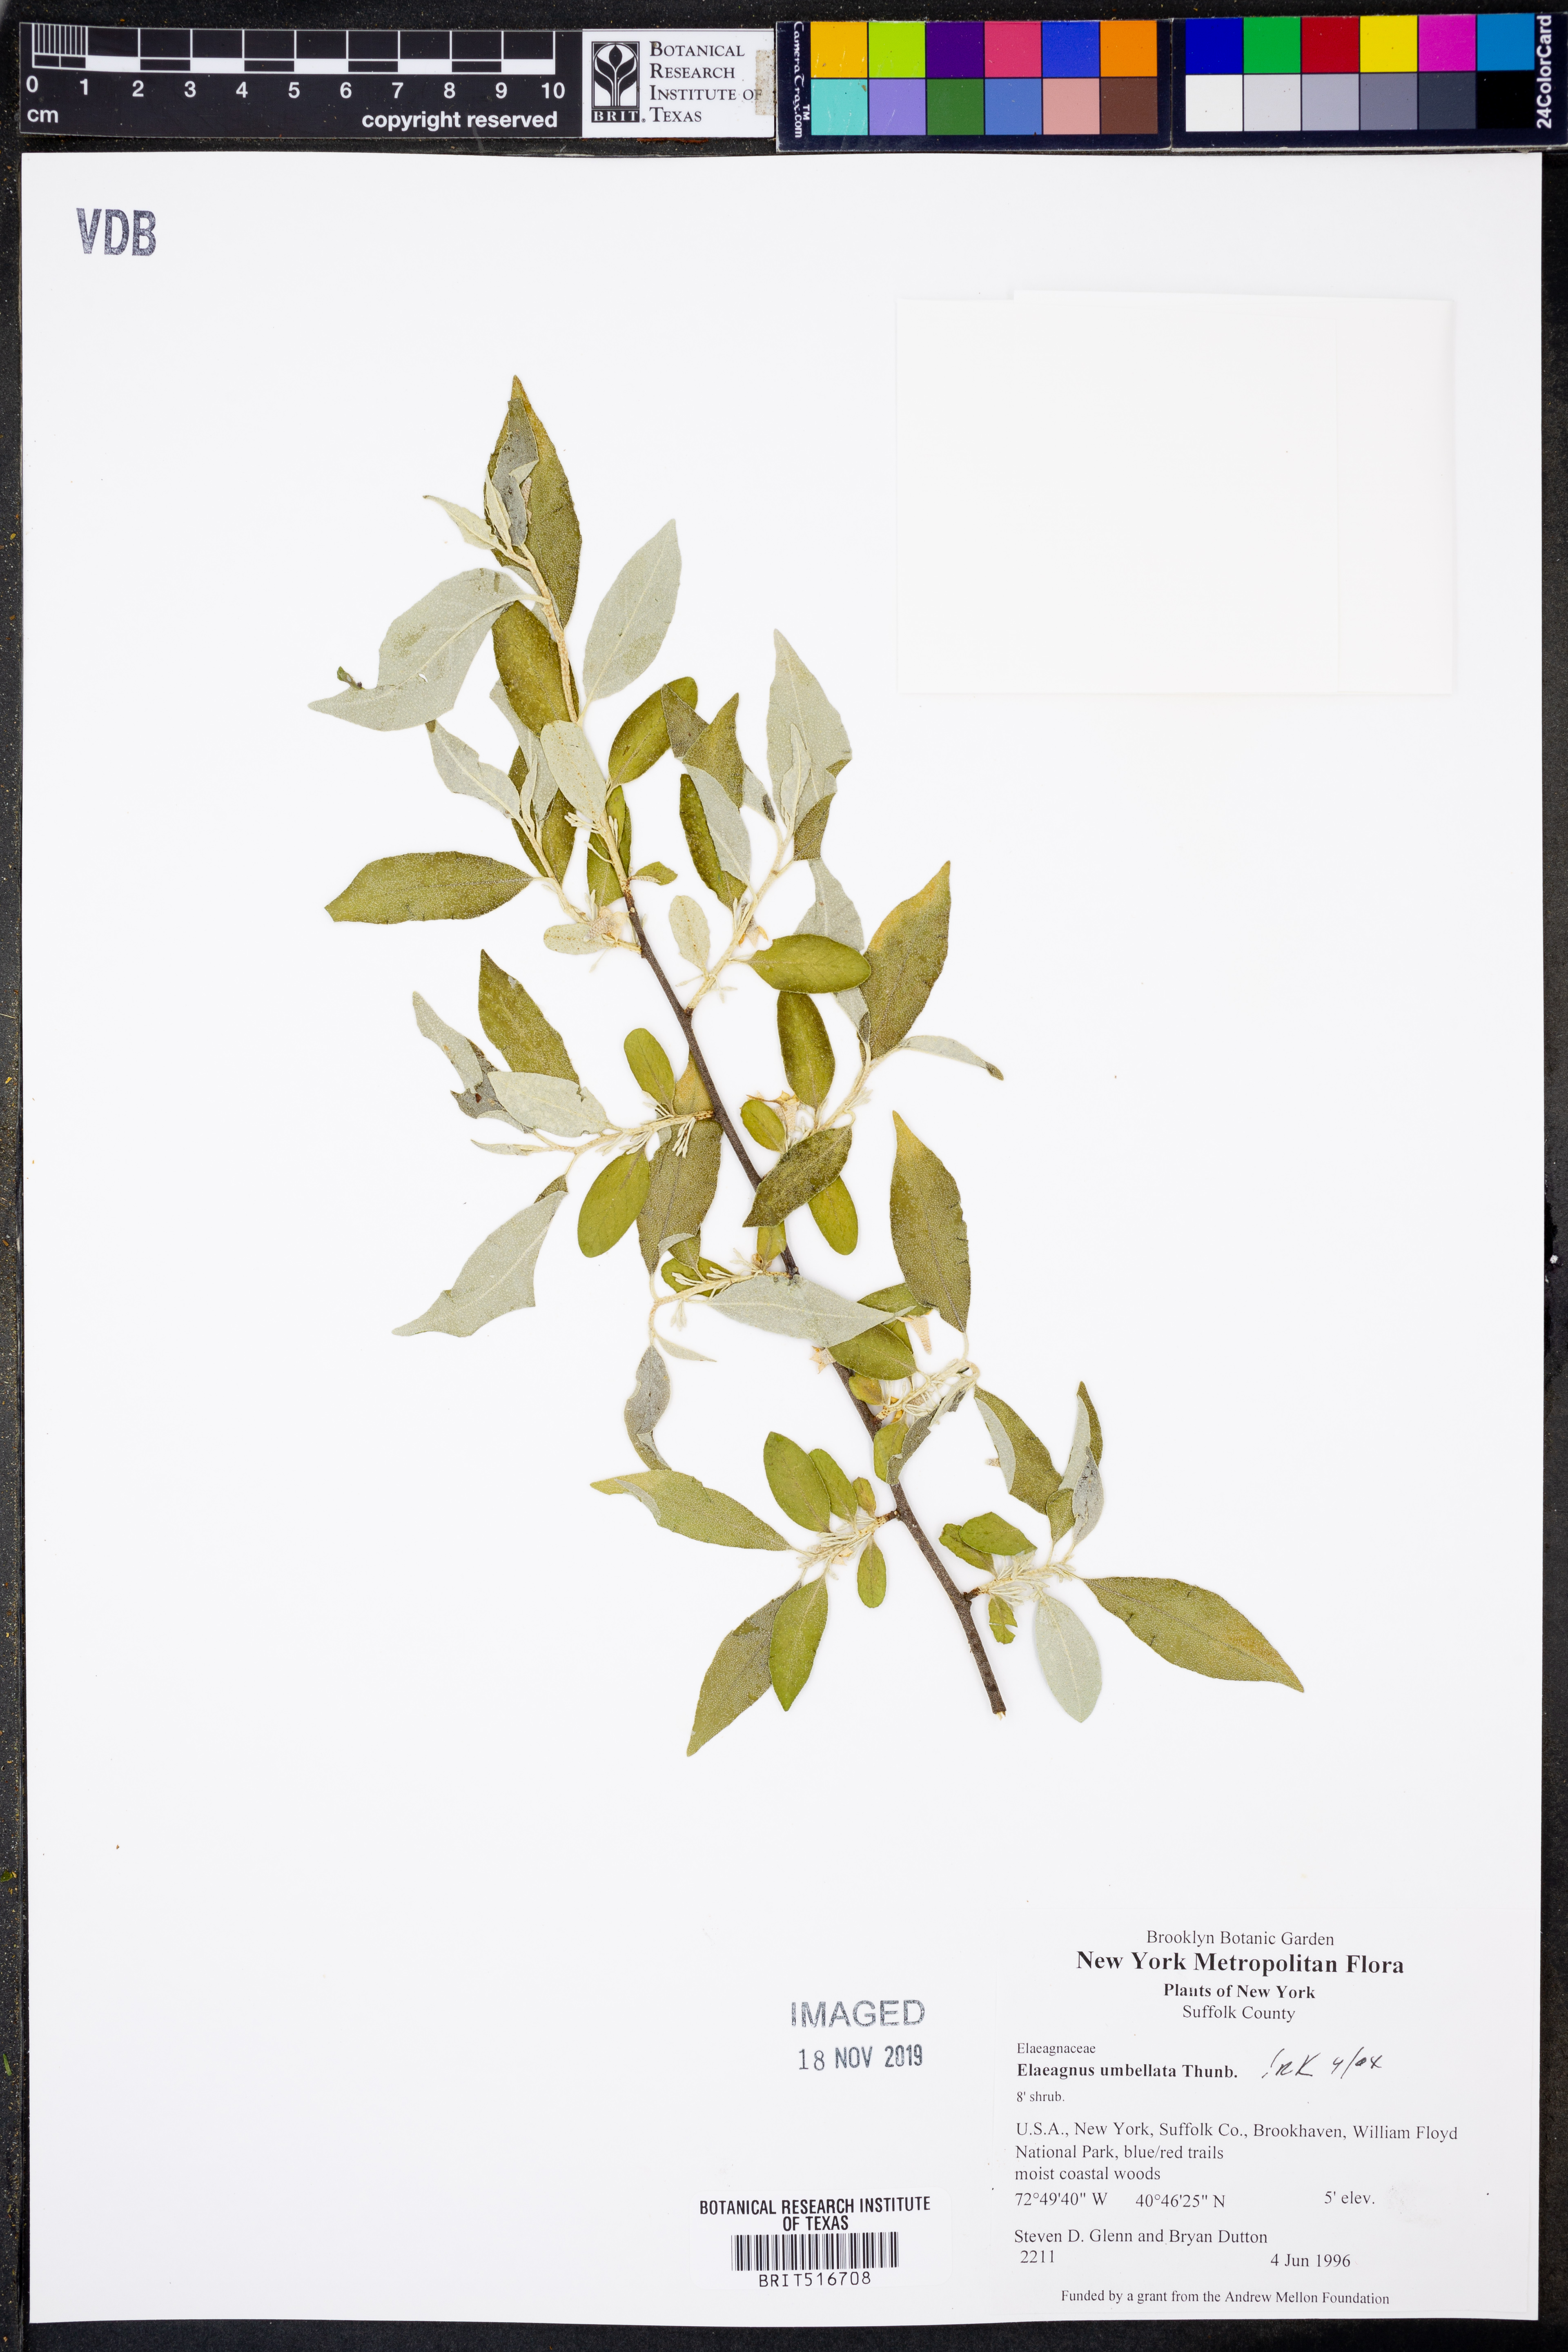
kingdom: Plantae
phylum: Tracheophyta
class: Magnoliopsida
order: Rosales
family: Elaeagnaceae
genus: Elaeagnus
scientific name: Elaeagnus umbellata
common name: Autumn olive
